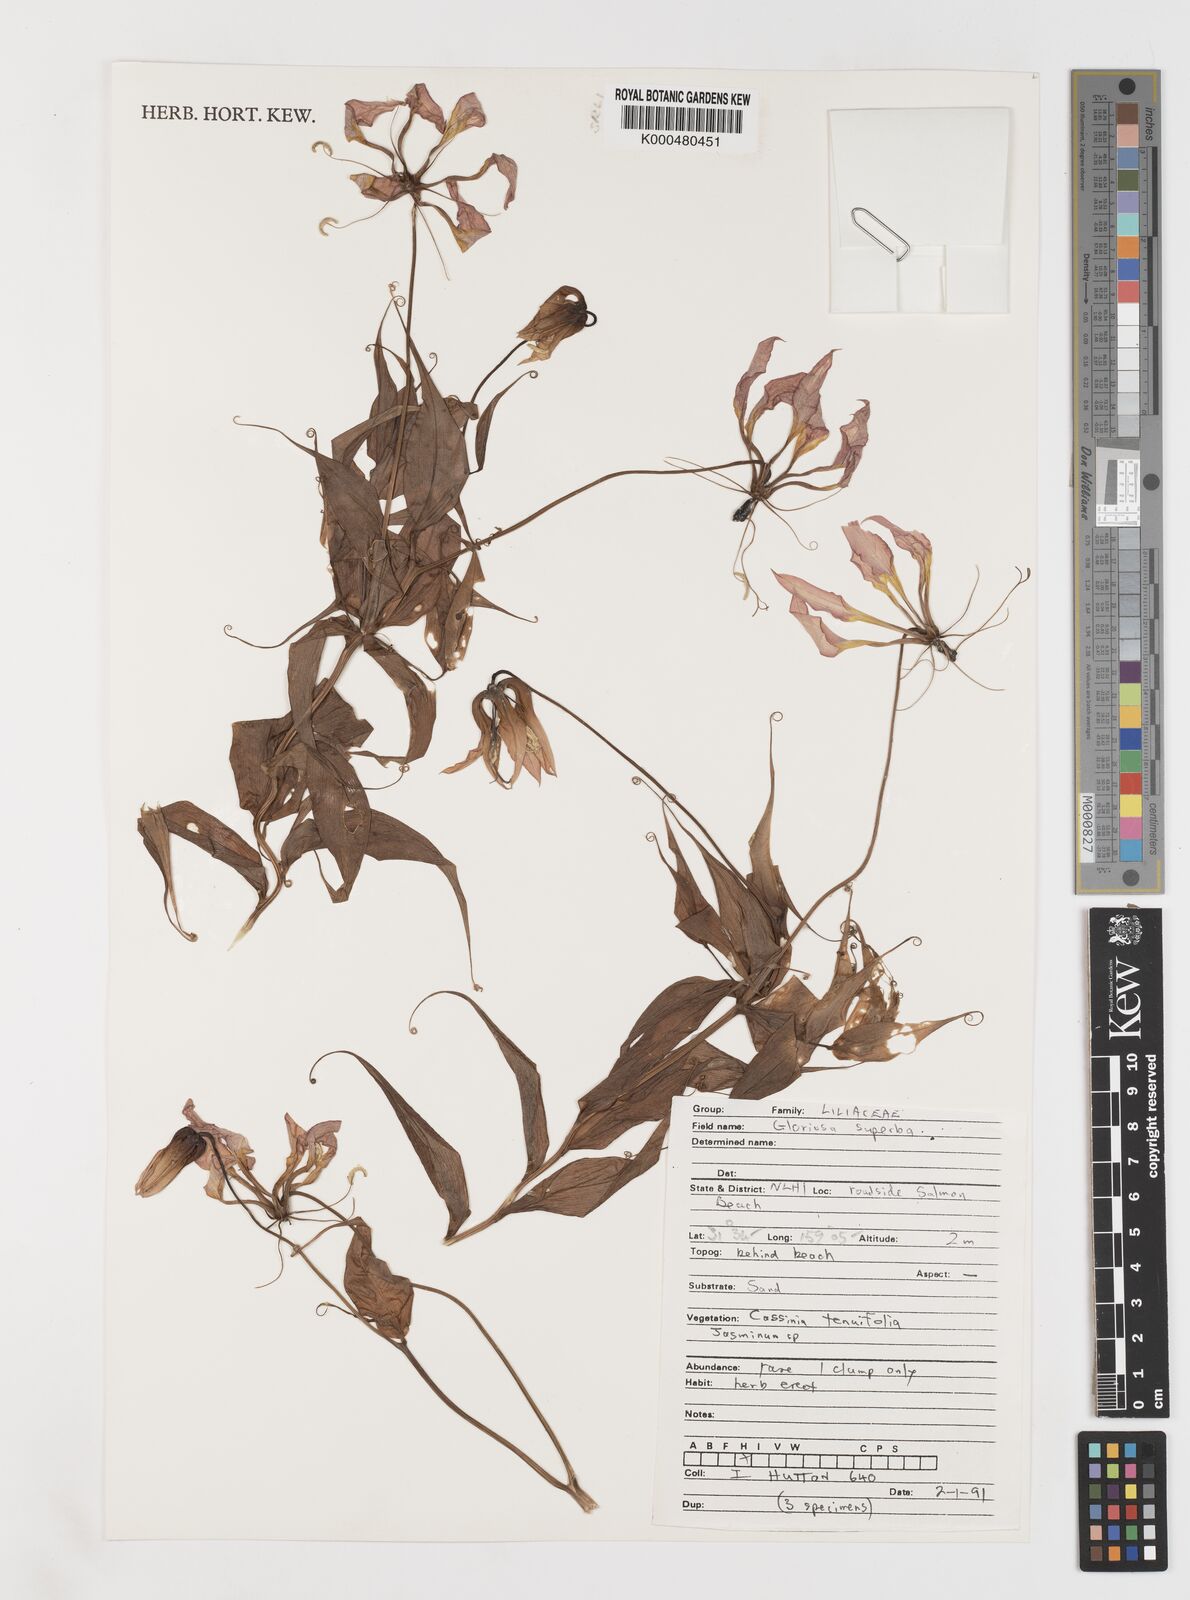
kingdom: Plantae
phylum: Tracheophyta
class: Liliopsida
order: Liliales
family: Colchicaceae
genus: Gloriosa
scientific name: Gloriosa superba
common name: Flame lily
